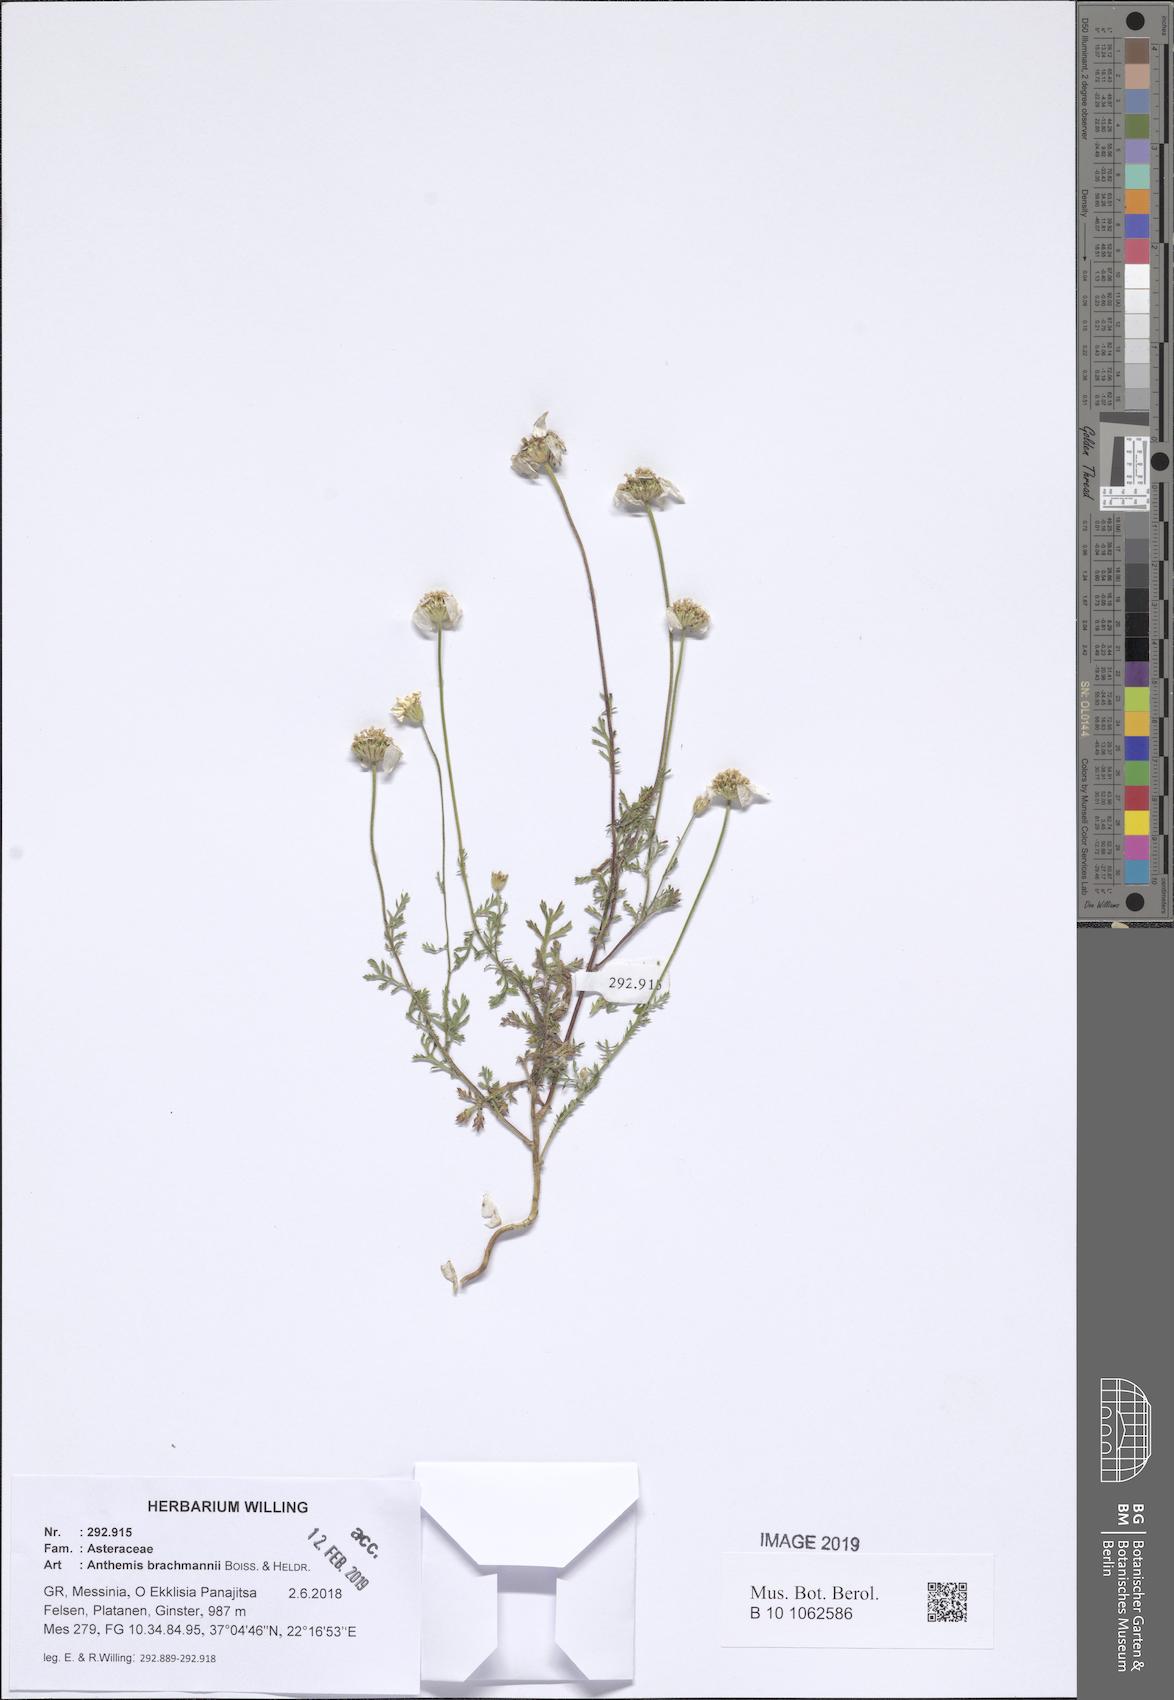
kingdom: Plantae
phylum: Tracheophyta
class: Magnoliopsida
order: Asterales
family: Asteraceae
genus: Cota
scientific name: Cota brachmanni
